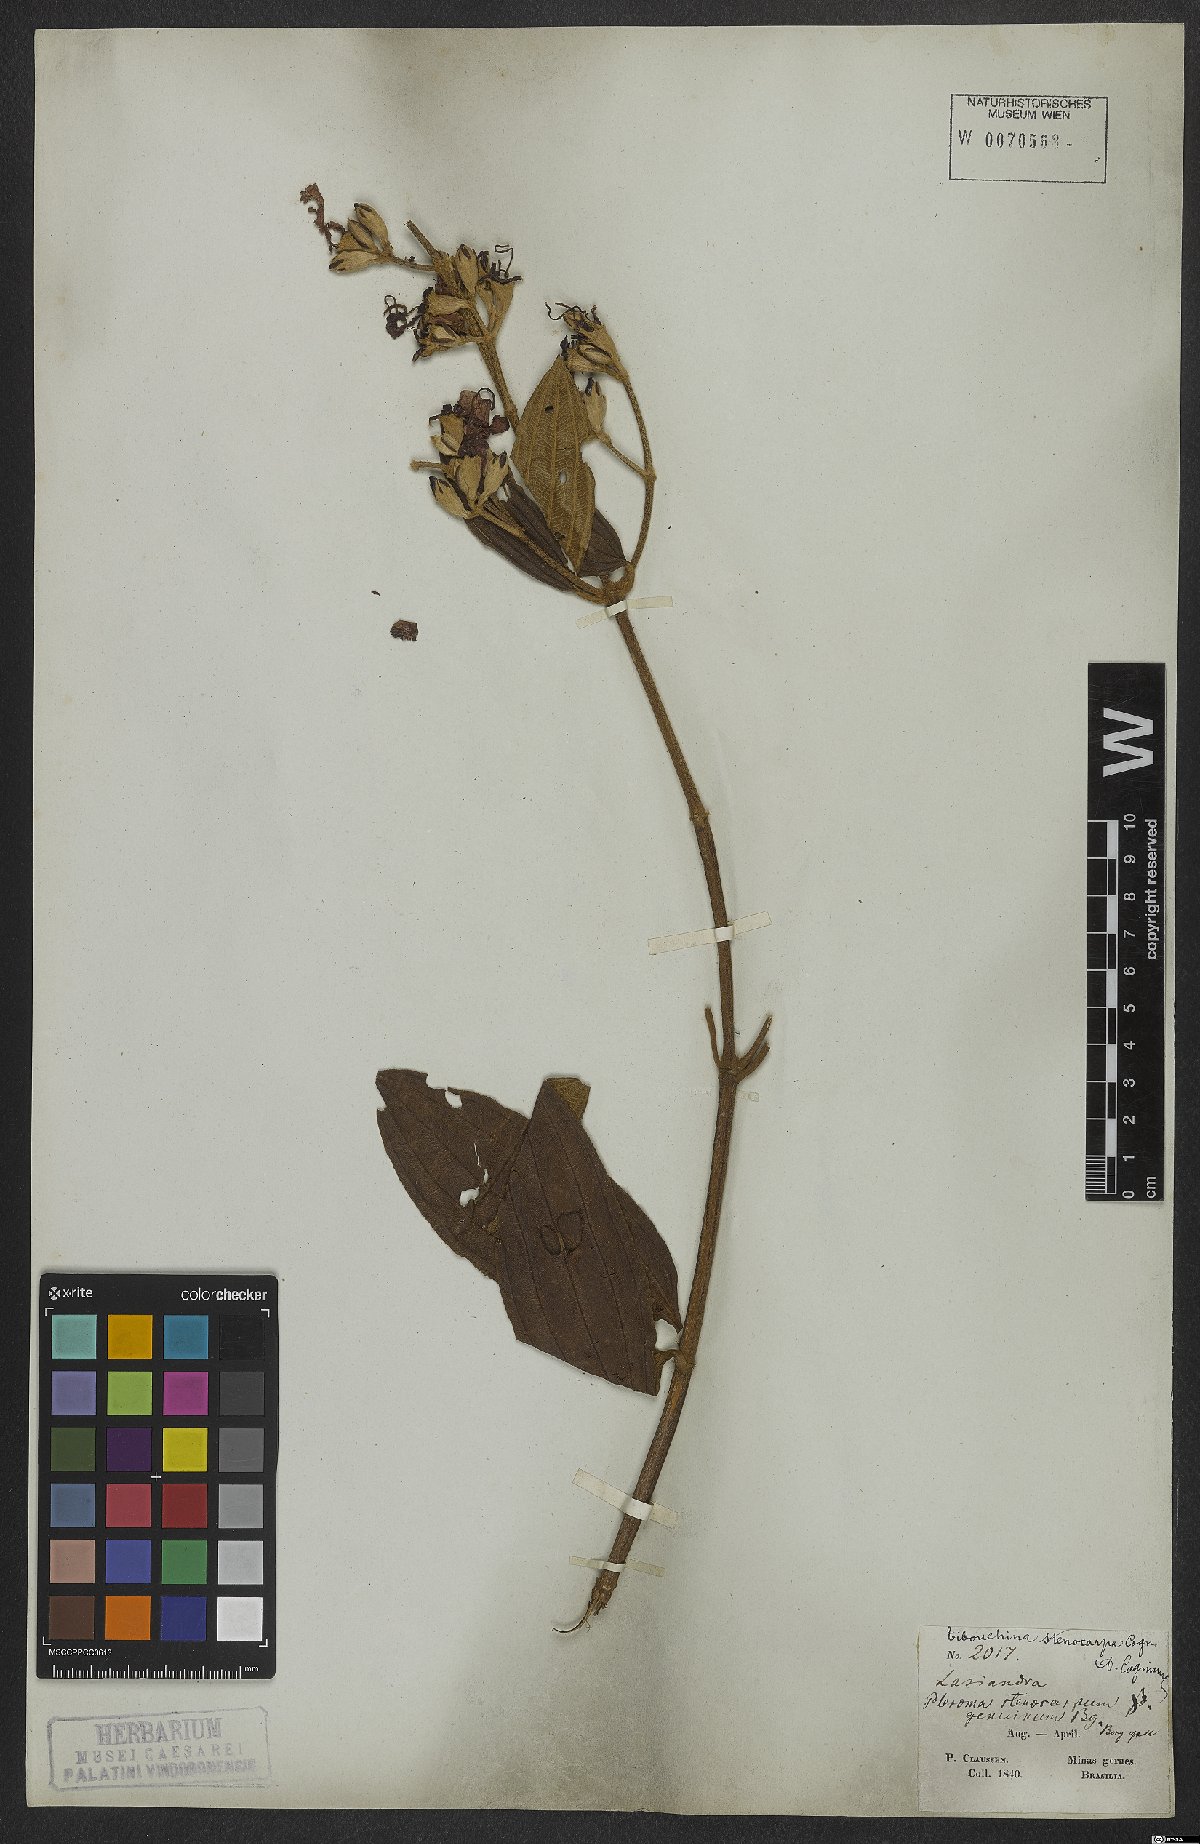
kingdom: Plantae
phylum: Tracheophyta
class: Magnoliopsida
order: Myrtales
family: Melastomataceae
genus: Pleroma
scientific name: Pleroma stenocarpum
